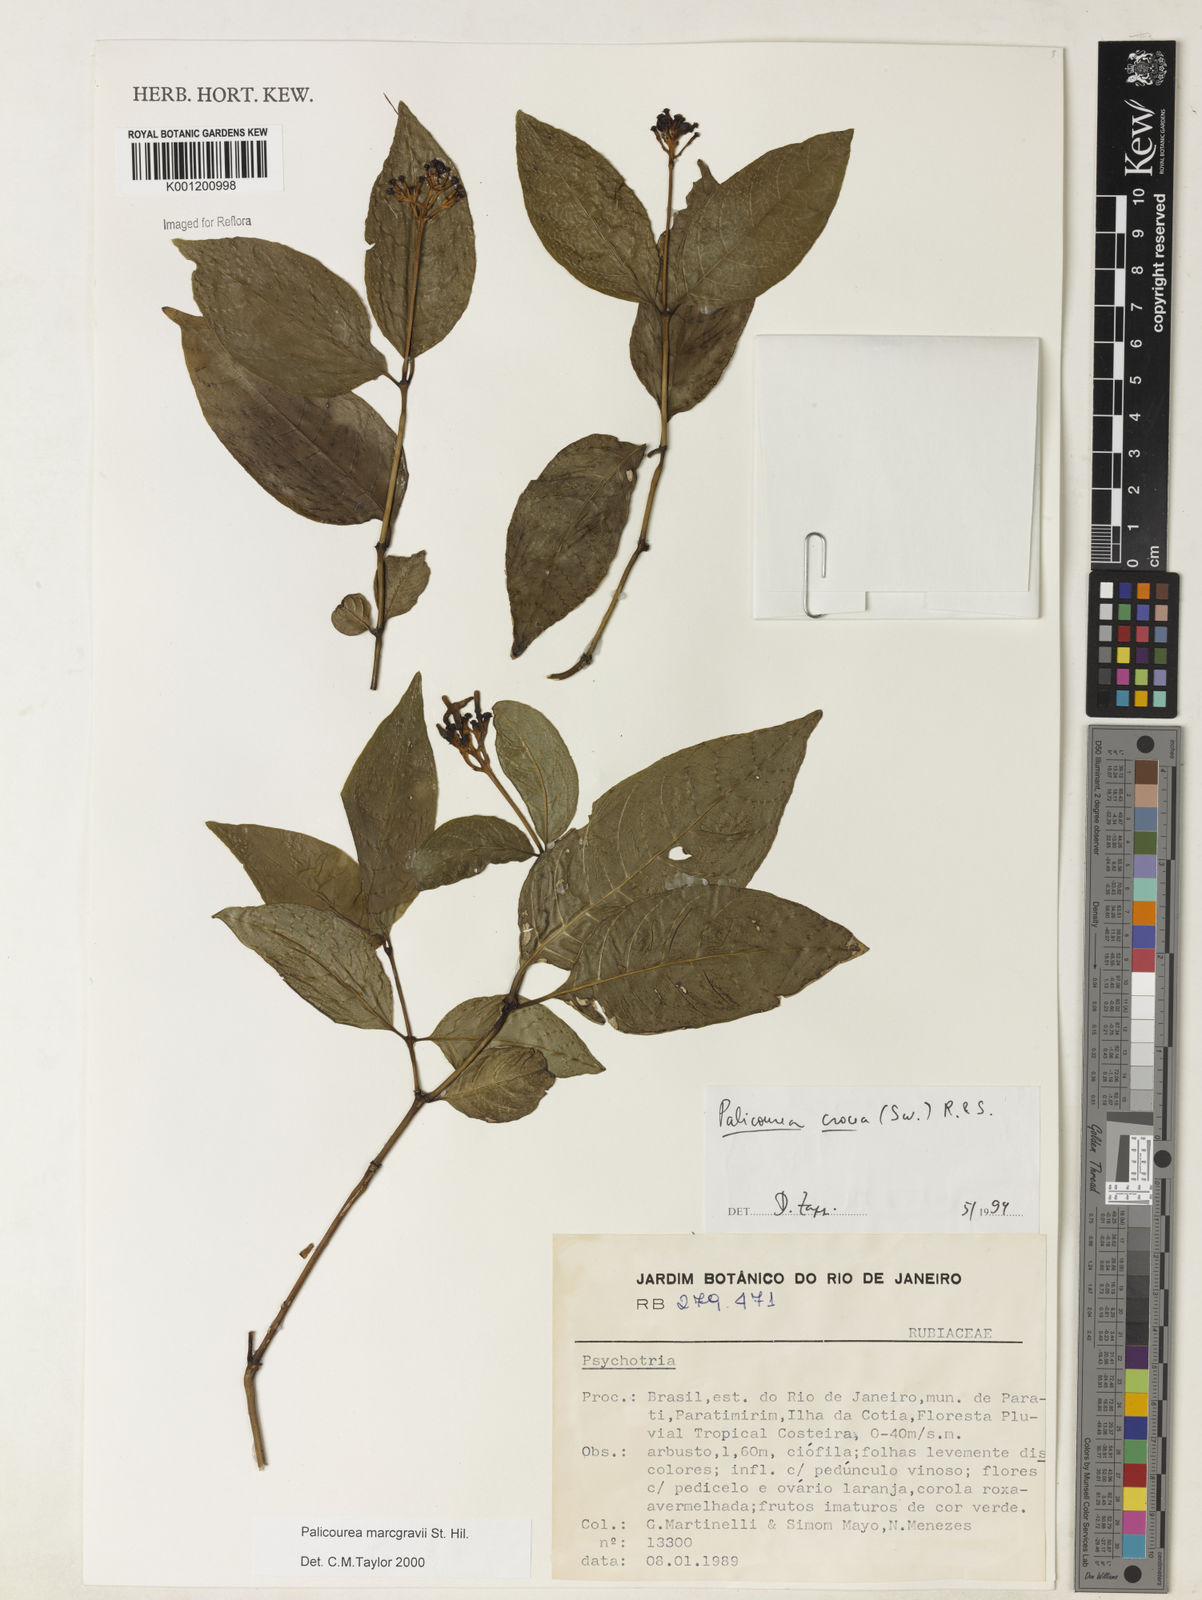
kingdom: Plantae
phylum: Tracheophyta
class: Magnoliopsida
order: Gentianales
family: Rubiaceae
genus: Palicourea
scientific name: Palicourea marcgravii
